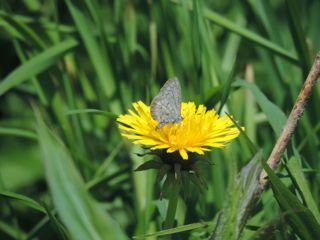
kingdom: Animalia
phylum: Arthropoda
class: Insecta
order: Lepidoptera
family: Lycaenidae
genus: Celastrina
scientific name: Celastrina
